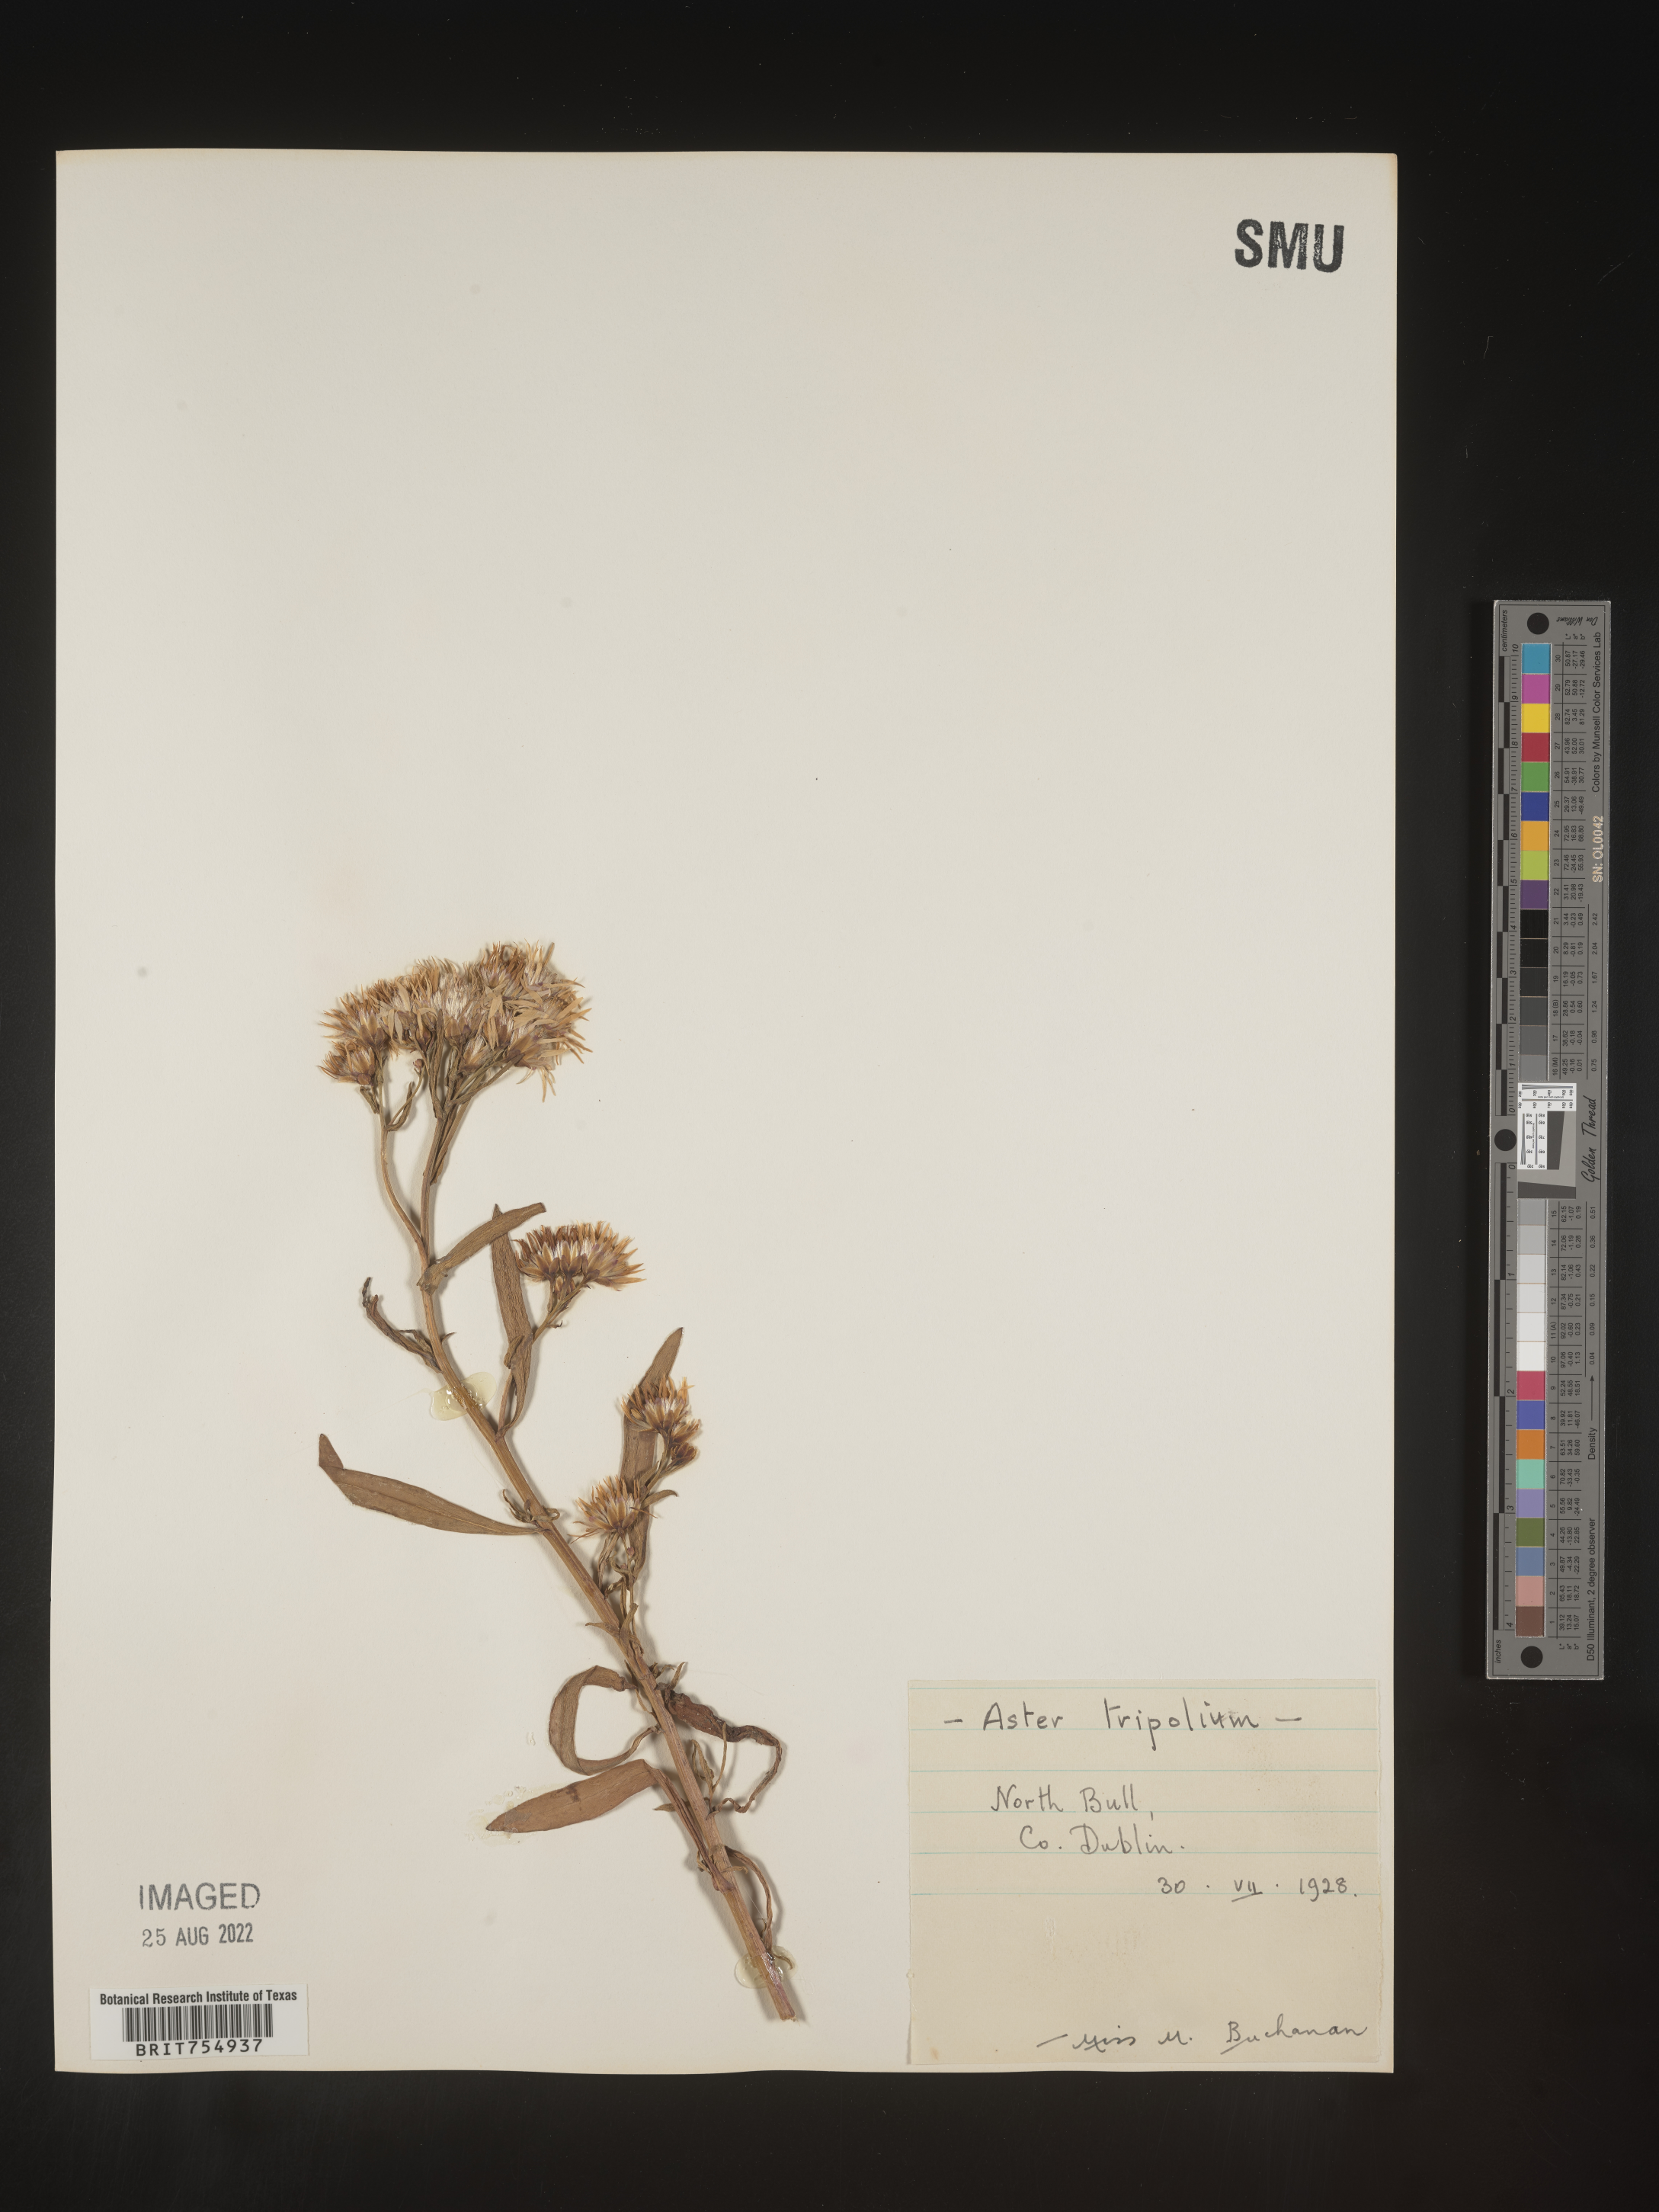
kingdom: Plantae
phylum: Tracheophyta
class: Magnoliopsida
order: Asterales
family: Asteraceae
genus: Symphyotrichum
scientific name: Symphyotrichum
